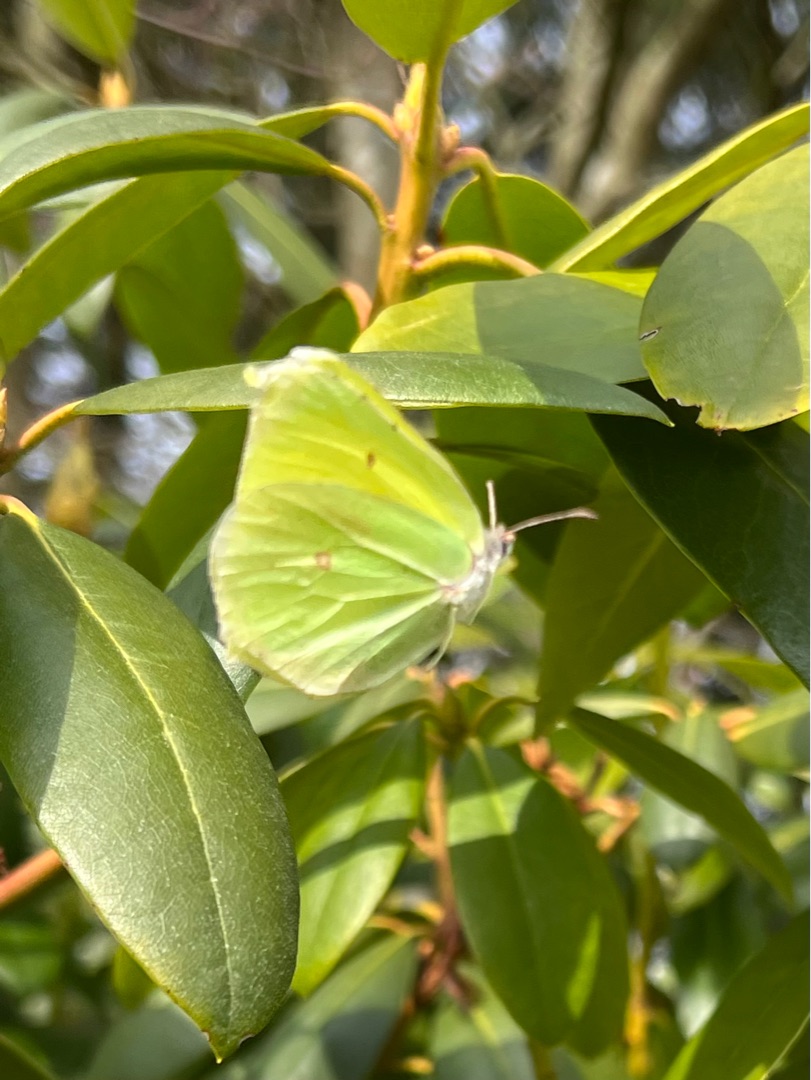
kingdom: Animalia
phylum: Arthropoda
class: Insecta
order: Lepidoptera
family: Pieridae
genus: Gonepteryx
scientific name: Gonepteryx rhamni
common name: Citronsommerfugl
